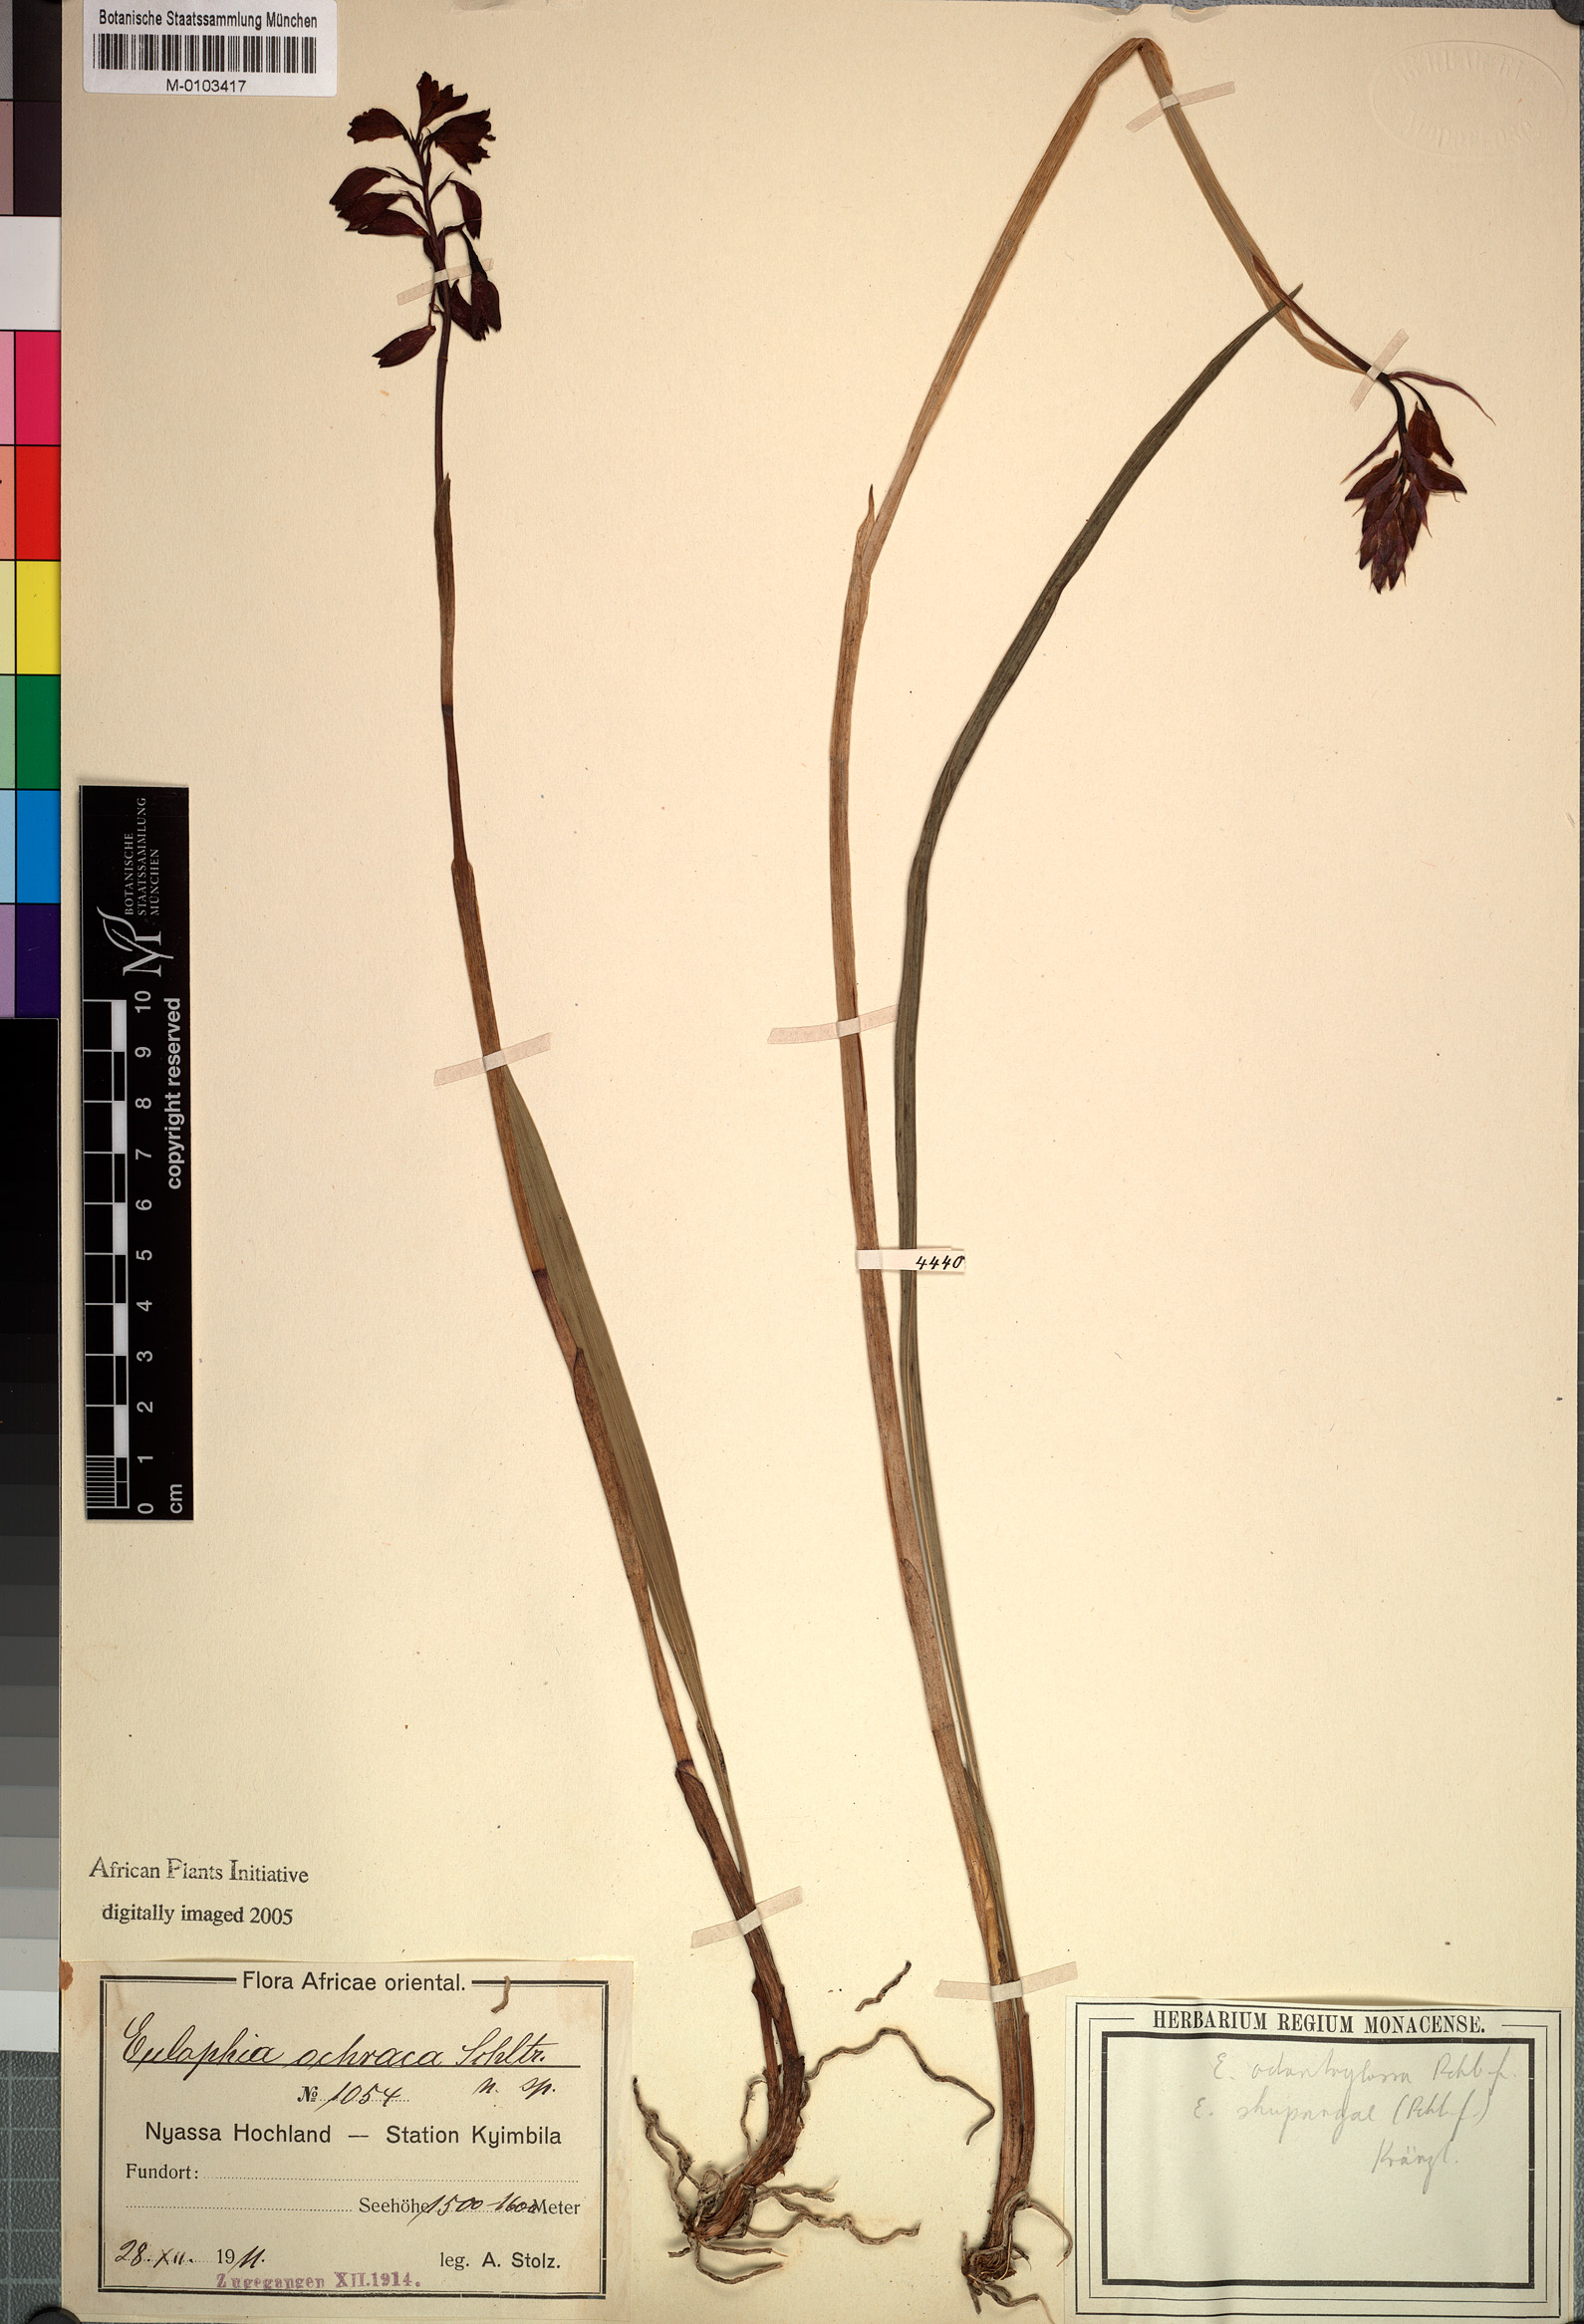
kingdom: Plantae
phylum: Tracheophyta
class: Liliopsida
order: Asparagales
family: Orchidaceae
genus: Eulophia
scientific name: Eulophia odontoglossa
